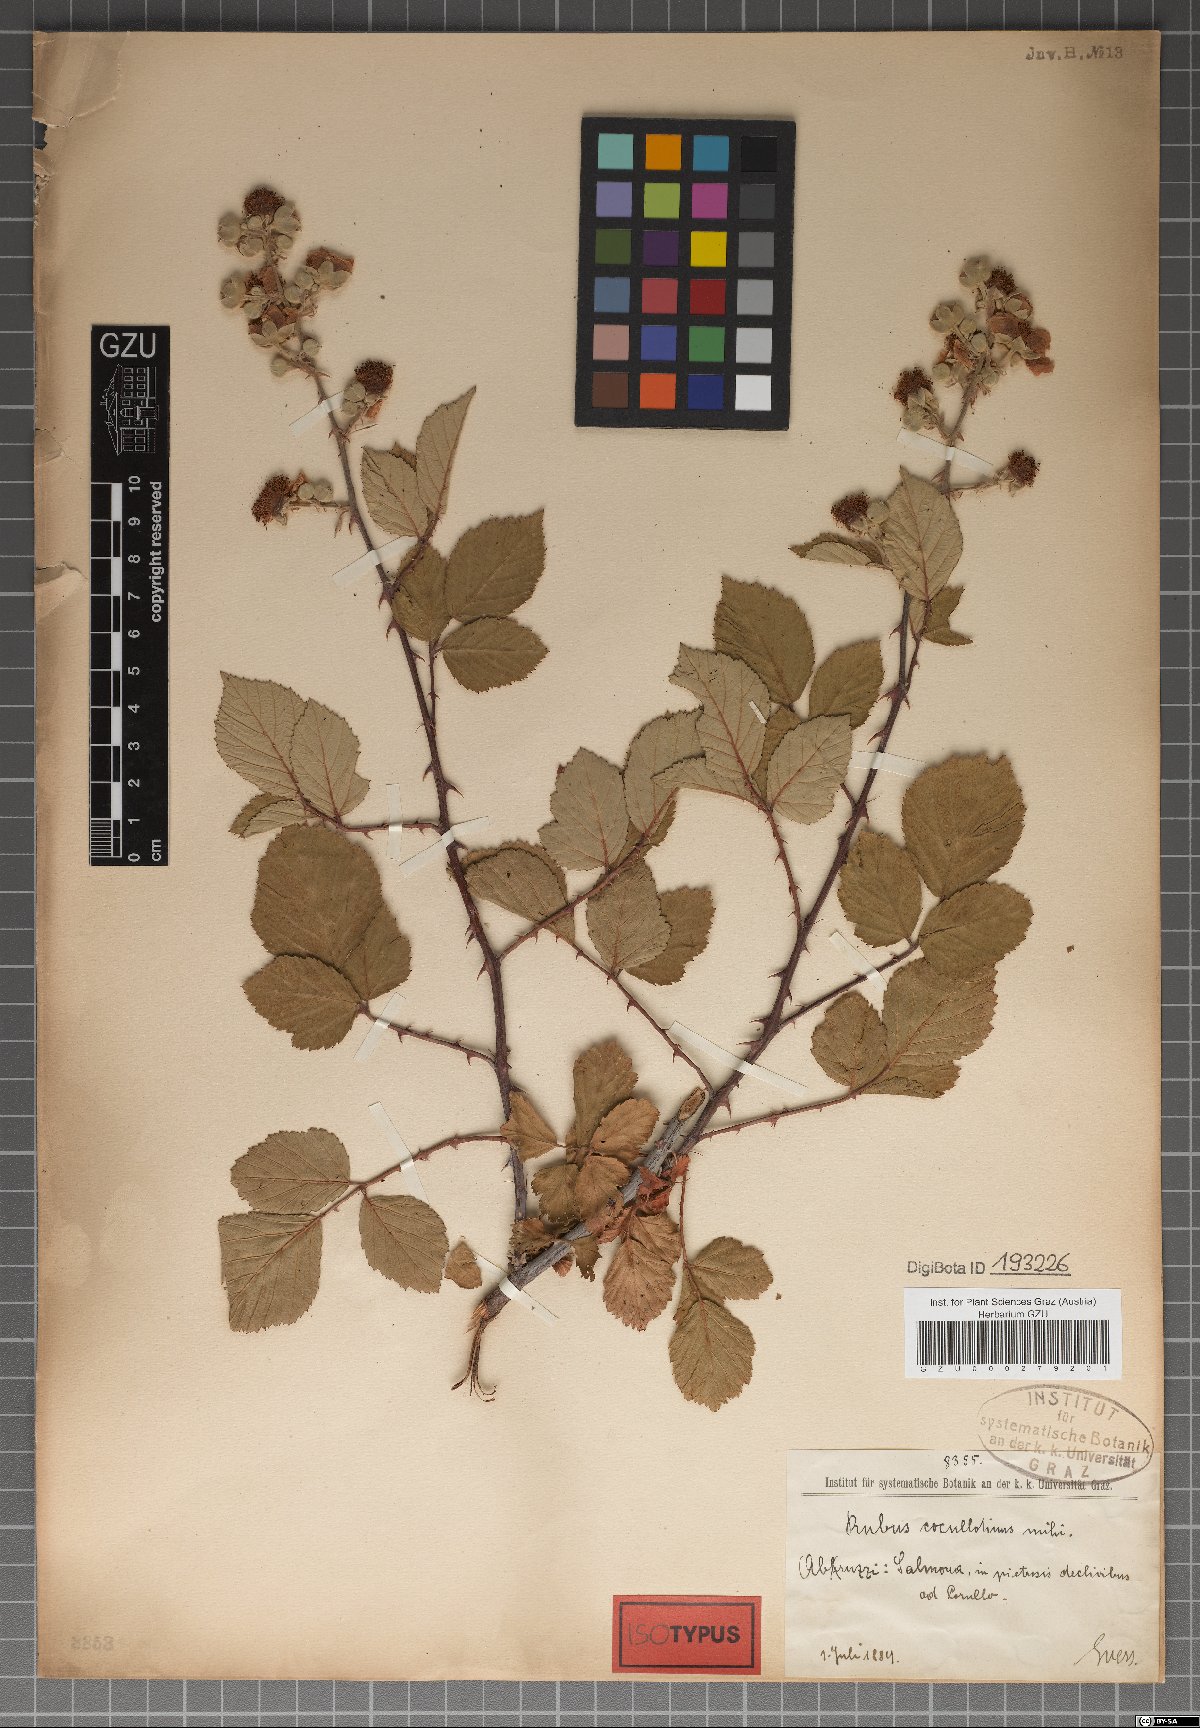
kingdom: Plantae
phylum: Tracheophyta
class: Magnoliopsida
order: Rosales
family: Rosaceae
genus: Rubus
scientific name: Rubus ulmifolius
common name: Elmleaf blackberry
